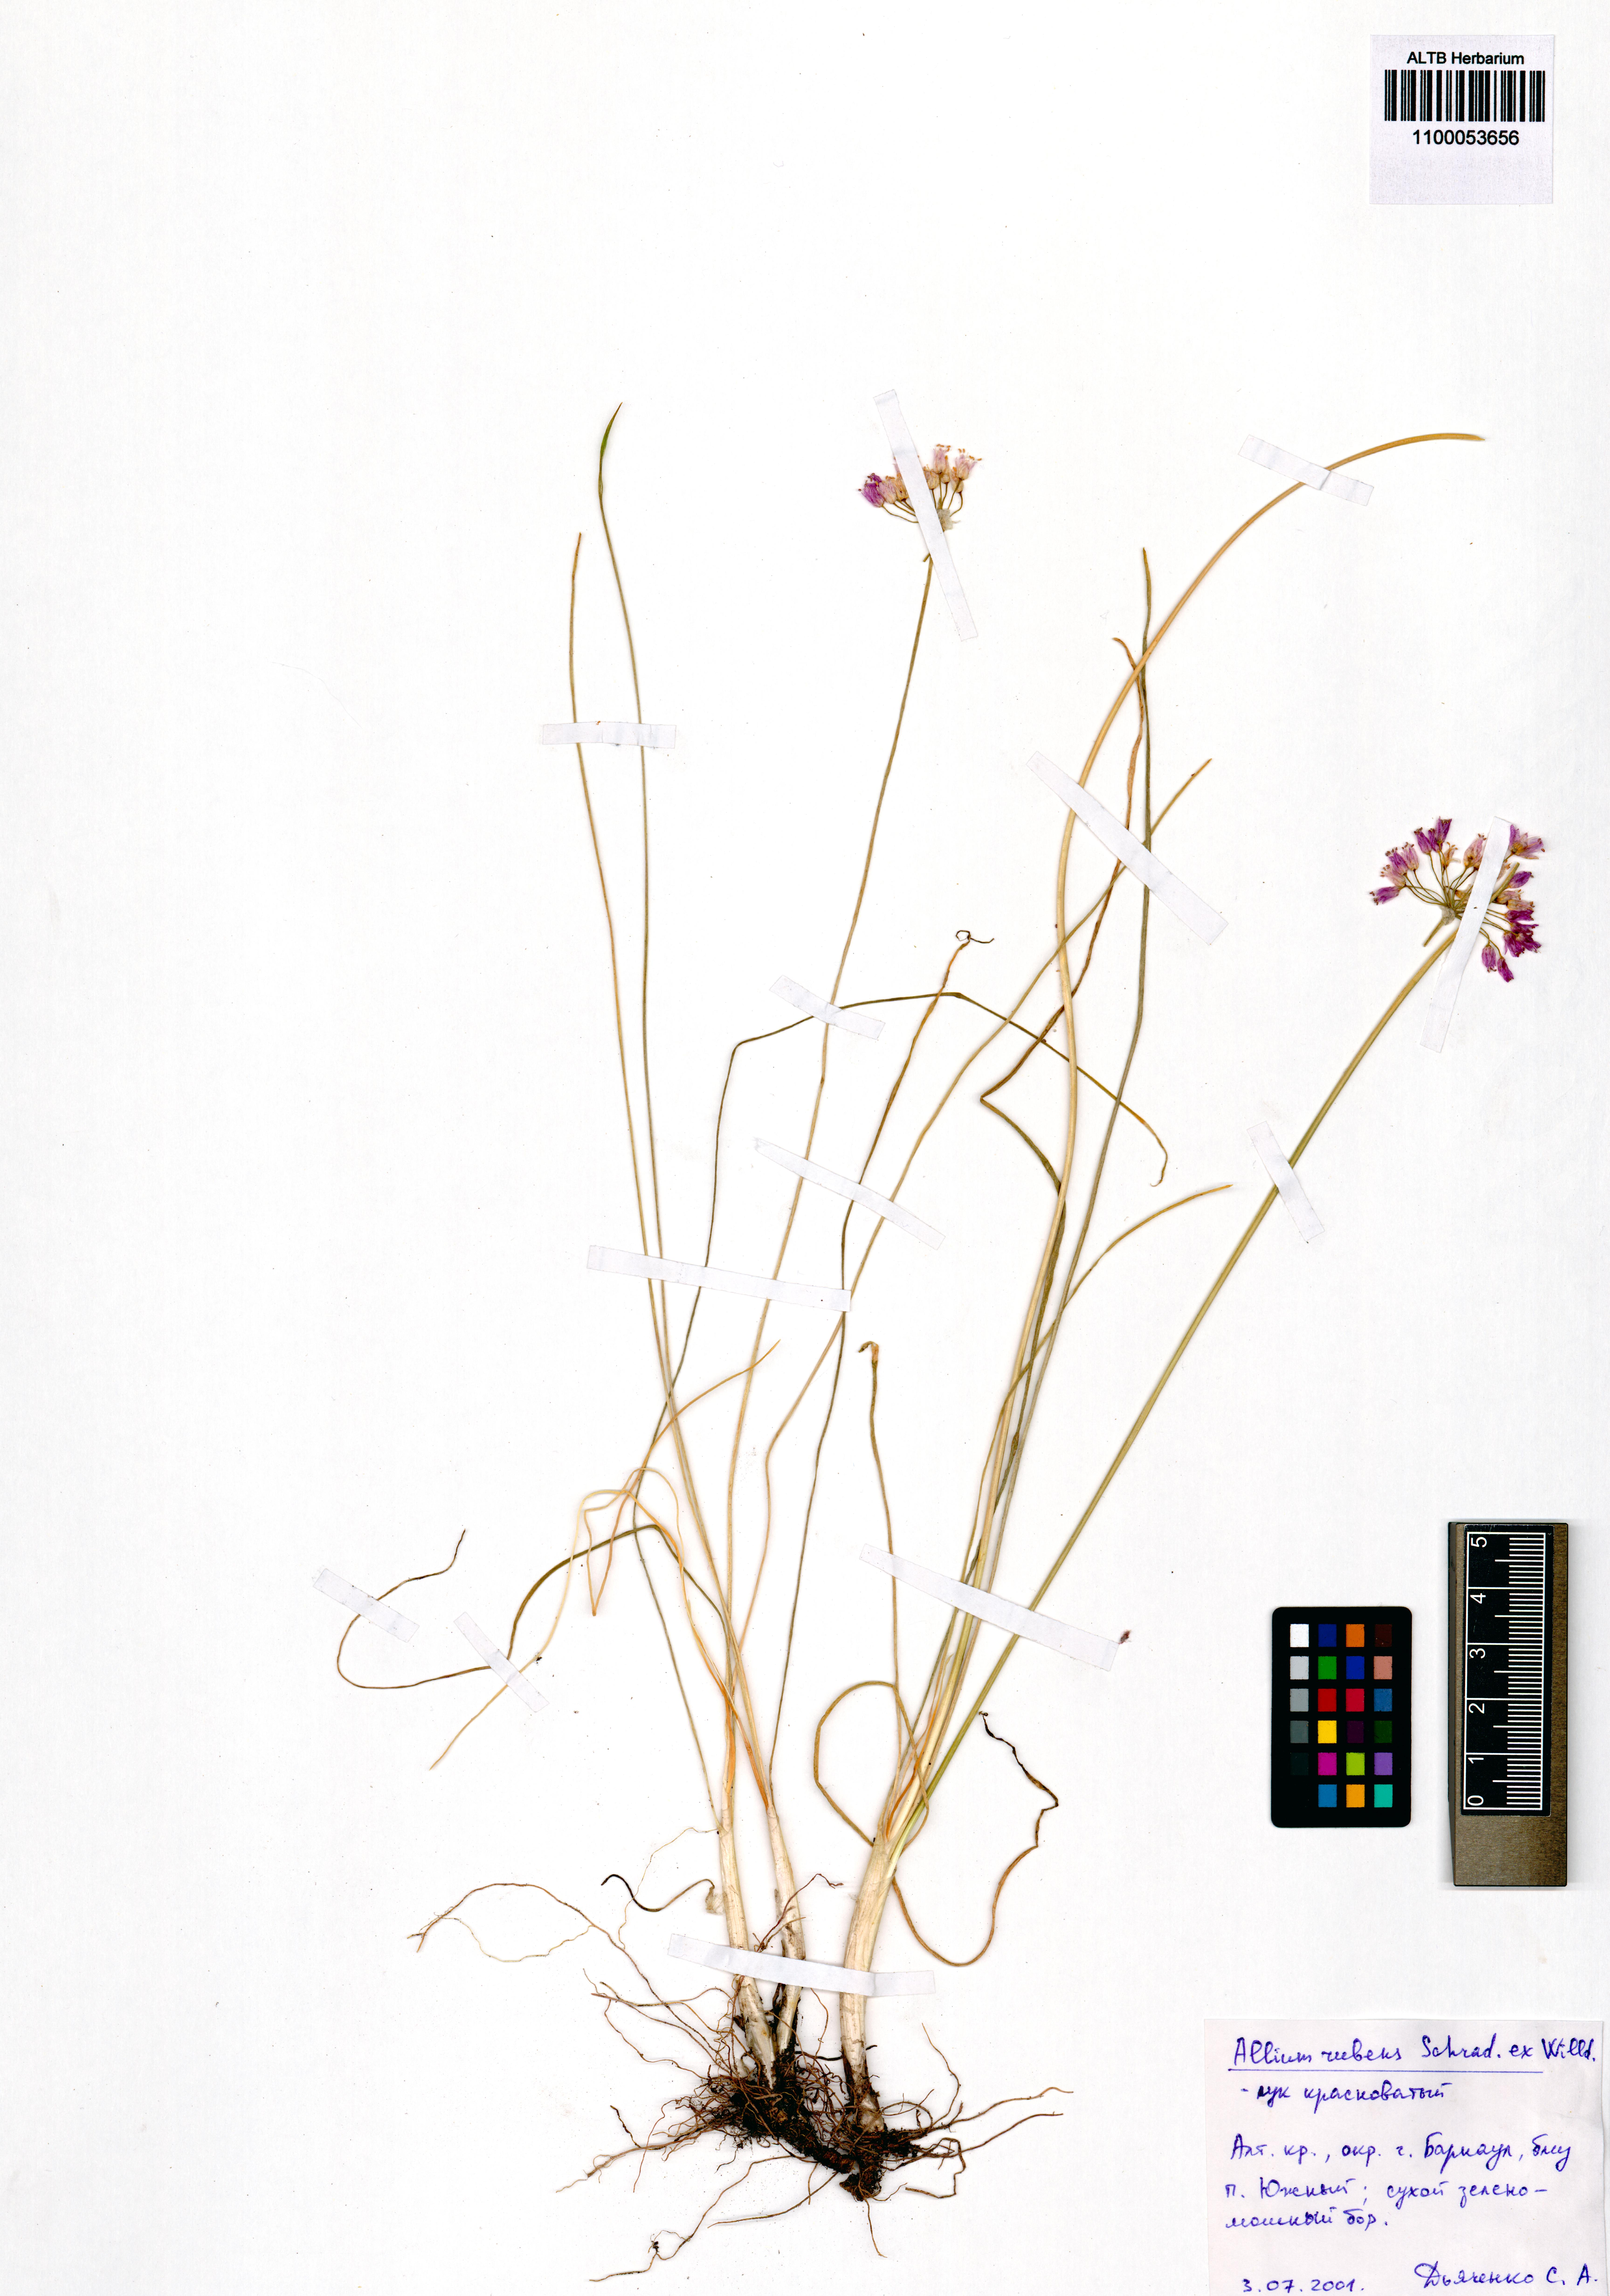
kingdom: Plantae
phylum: Tracheophyta
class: Liliopsida
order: Asparagales
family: Amaryllidaceae
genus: Allium
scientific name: Allium rubens
